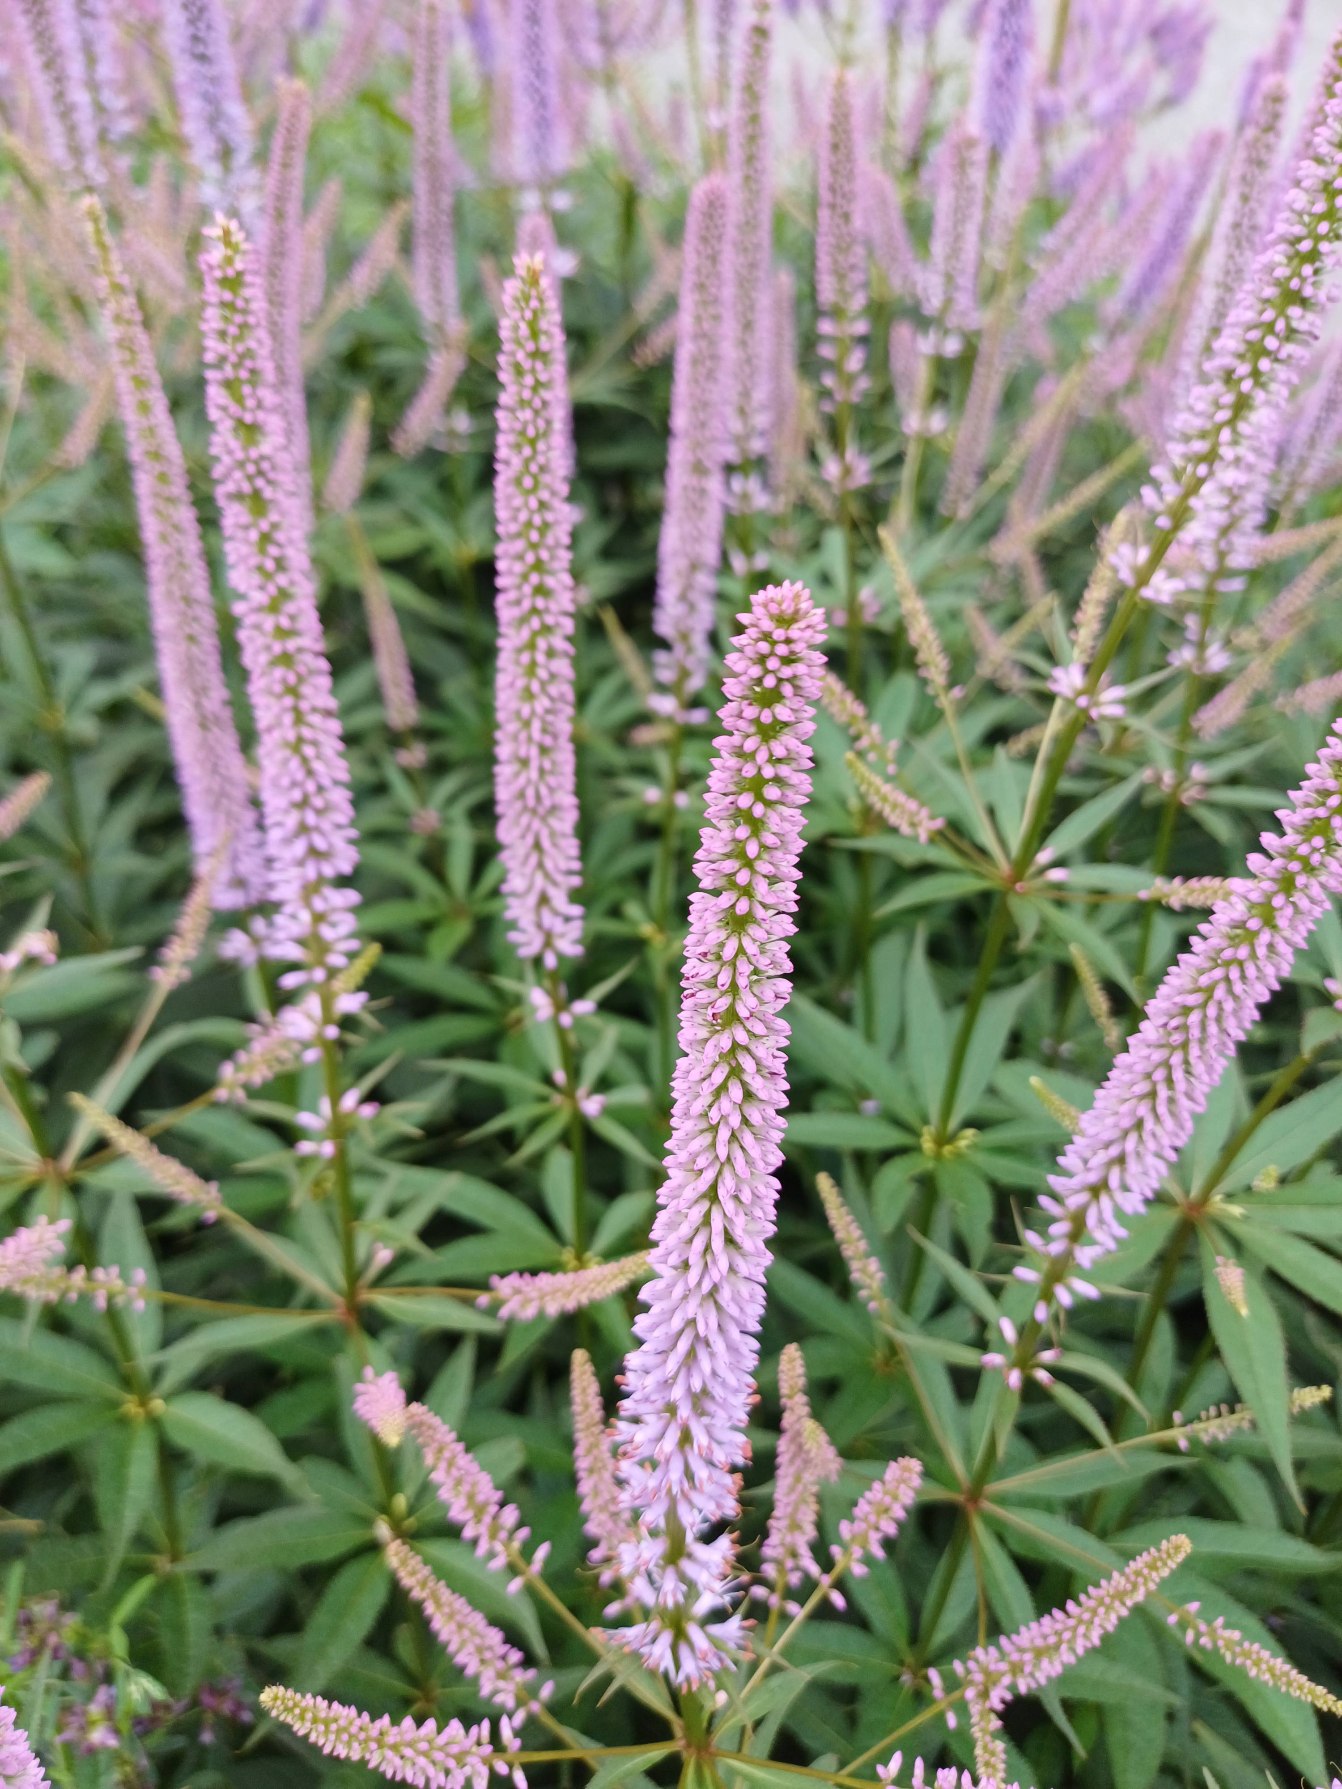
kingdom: Plantae
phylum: Tracheophyta
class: Magnoliopsida
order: Lamiales
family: Plantaginaceae
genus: Veronicastrum
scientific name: Veronicastrum virginicum
